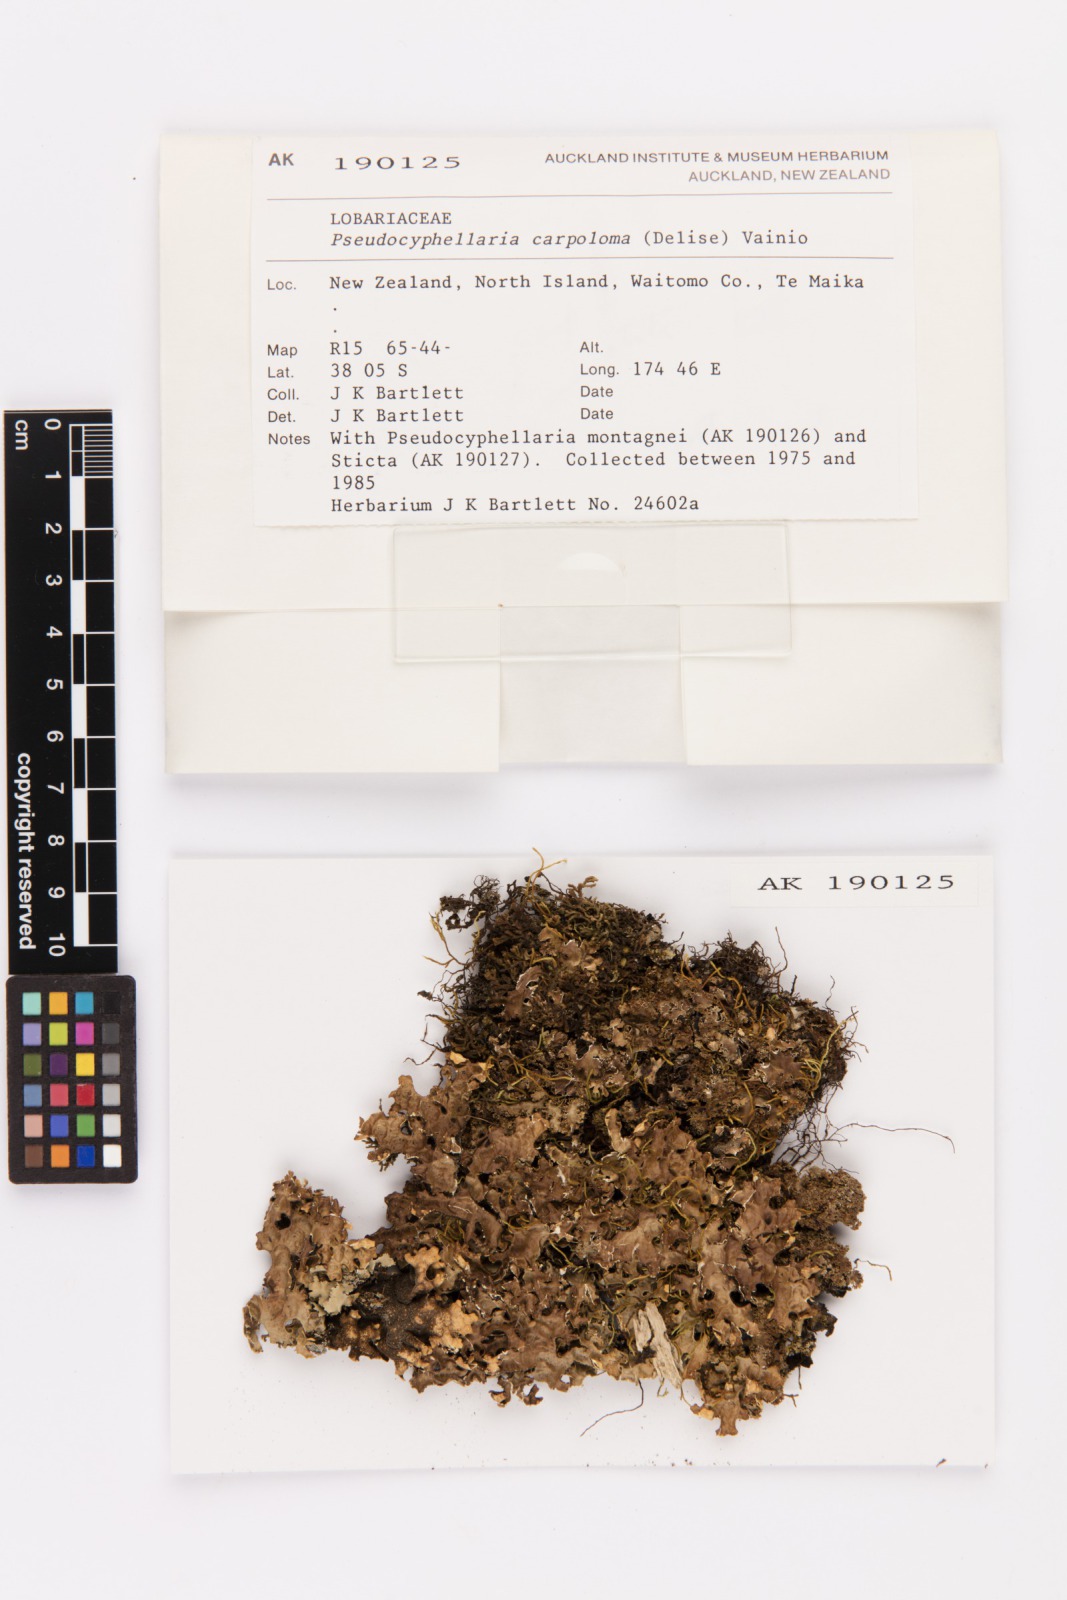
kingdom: Fungi
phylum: Ascomycota
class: Lecanoromycetes
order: Peltigerales
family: Lobariaceae
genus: Pseudocyphellaria
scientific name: Pseudocyphellaria carpoloma
